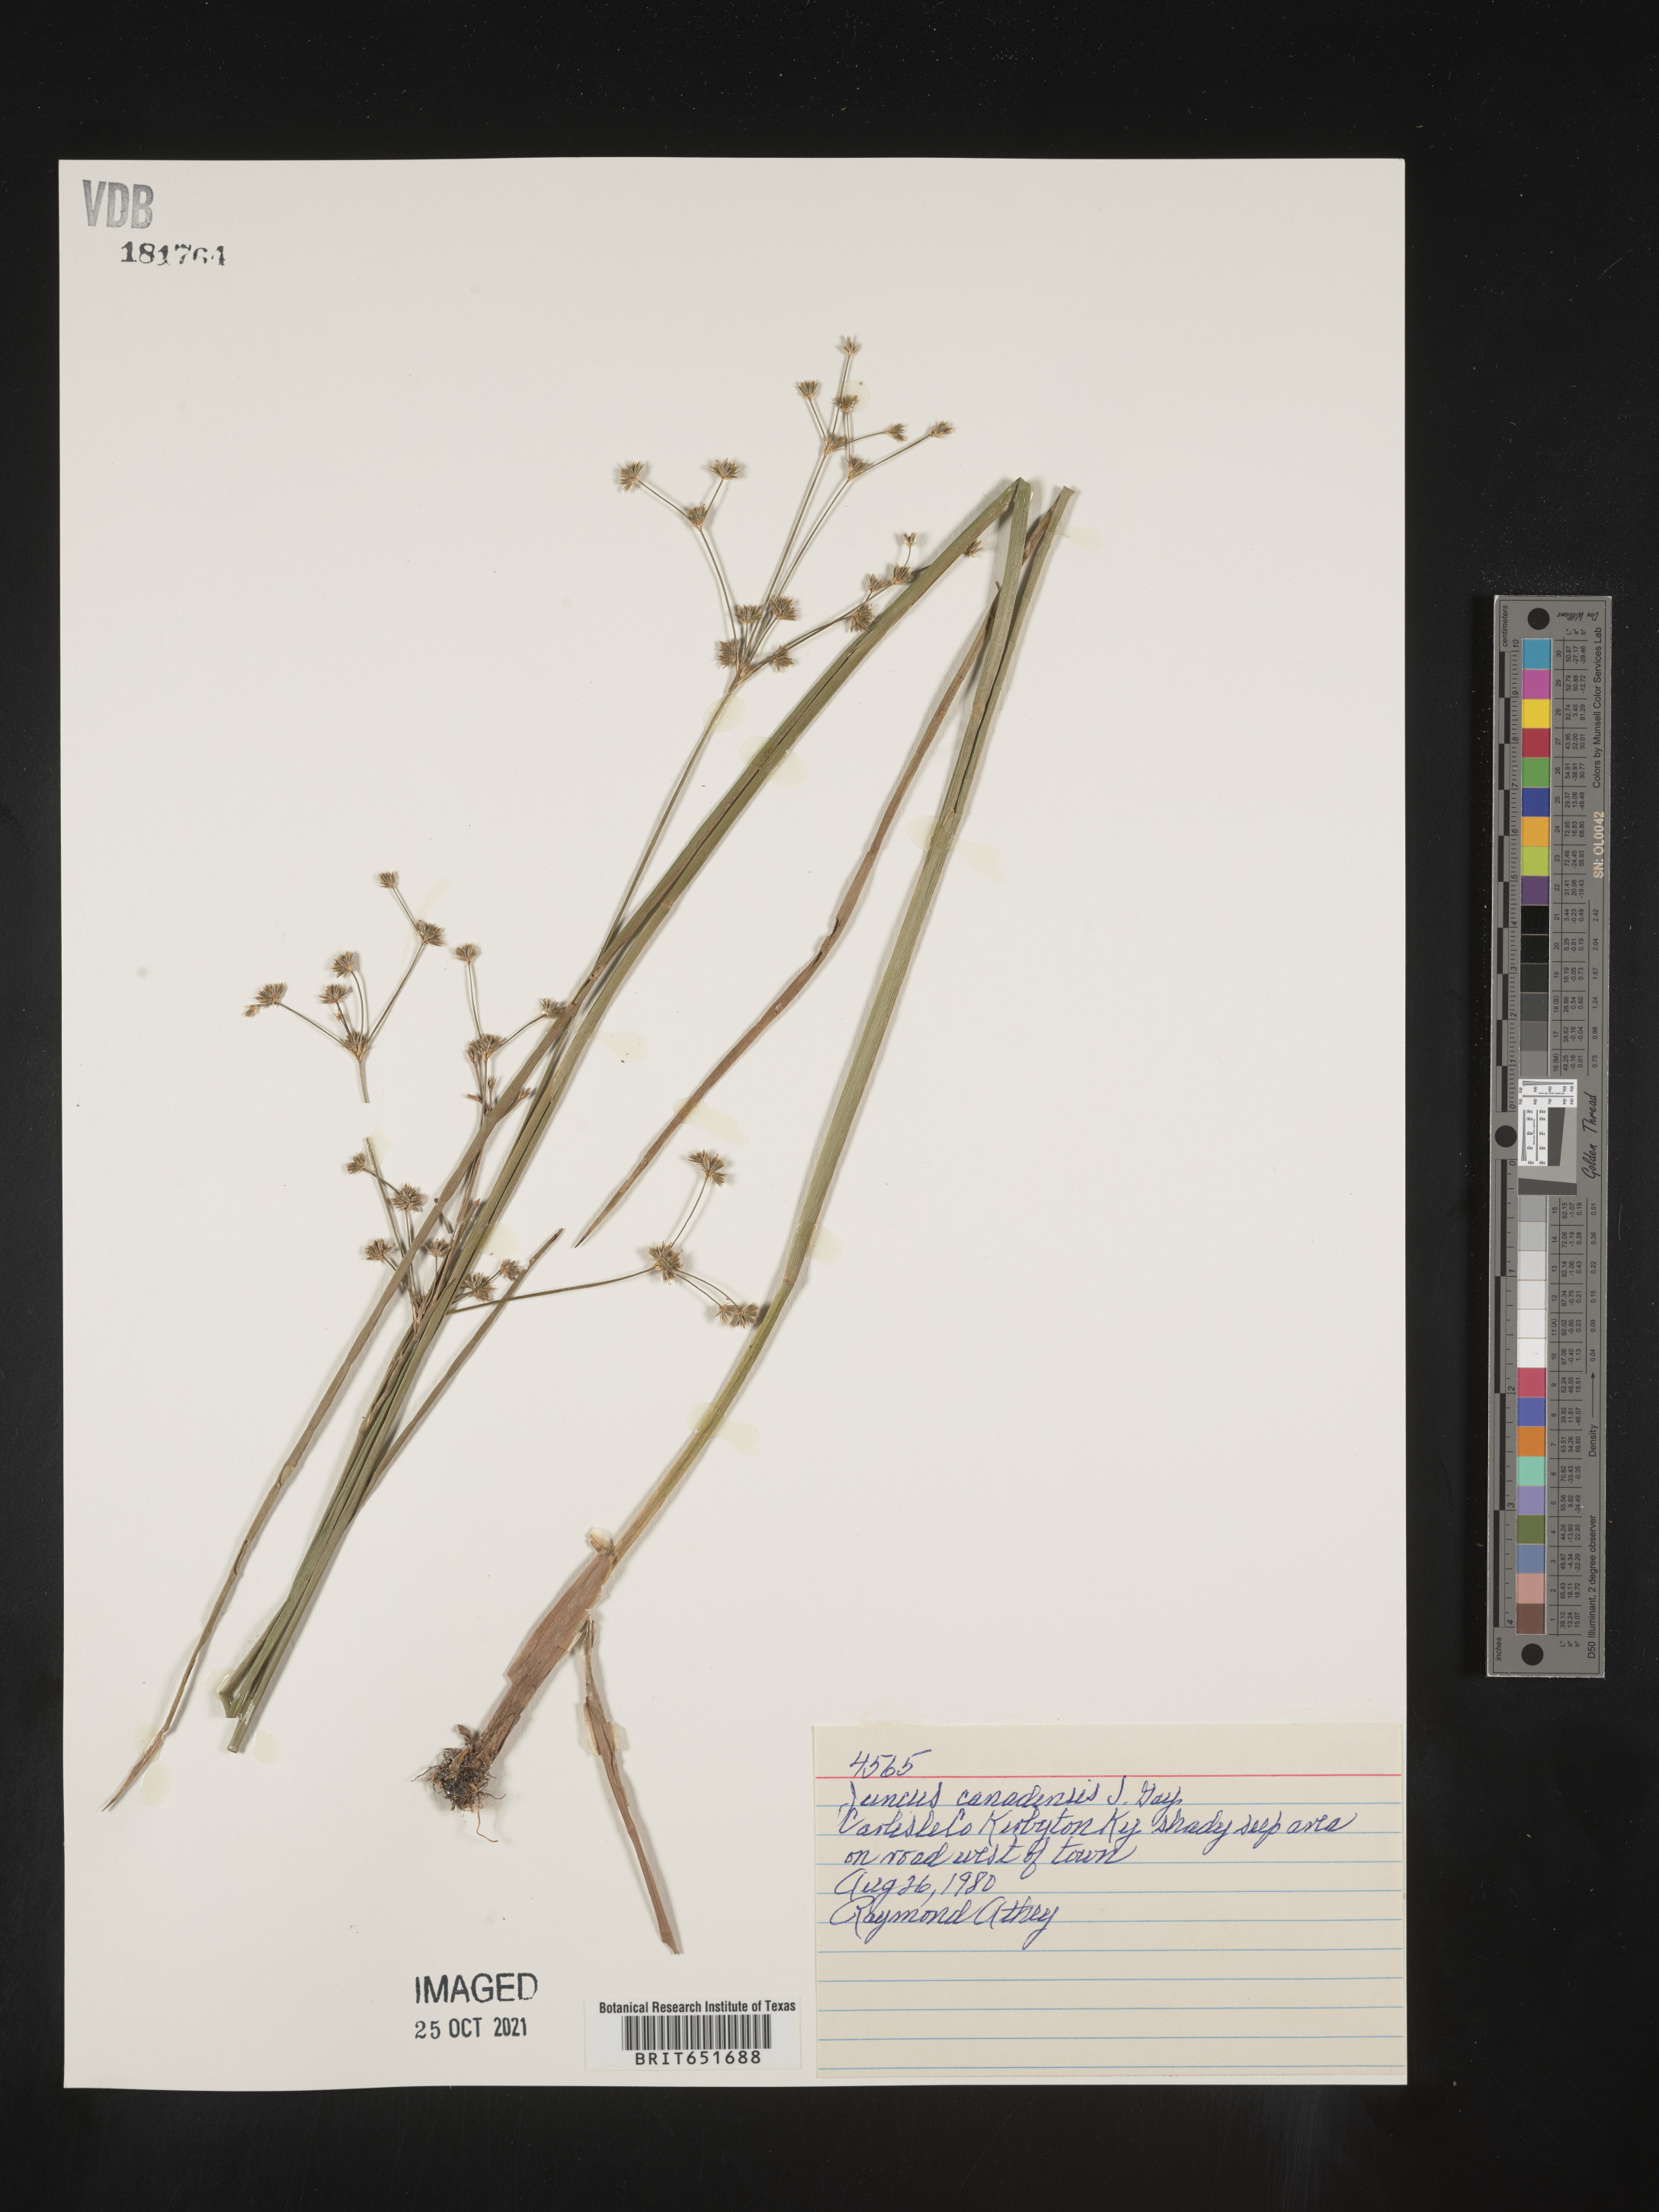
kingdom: Plantae
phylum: Tracheophyta
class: Liliopsida
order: Poales
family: Juncaceae
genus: Juncus
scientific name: Juncus canadensis
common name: Canada rush
